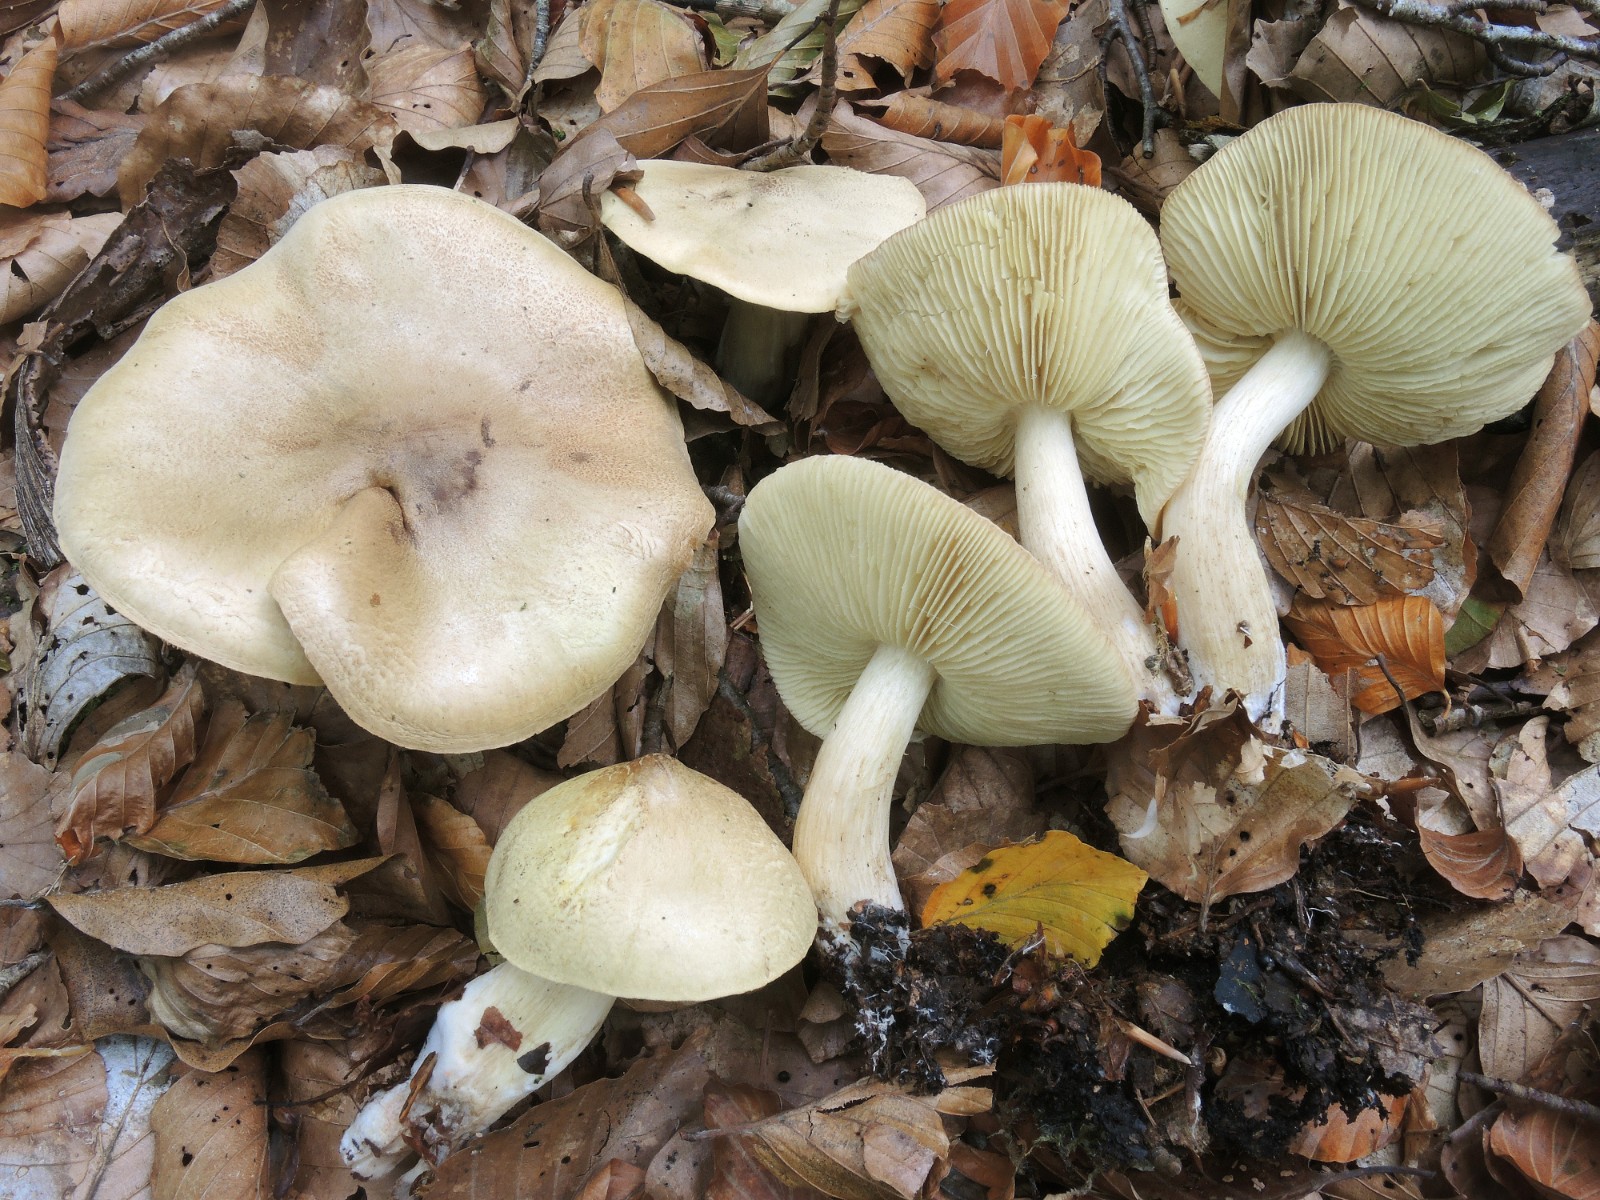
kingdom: Fungi
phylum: Basidiomycota
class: Agaricomycetes
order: Agaricales
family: Tricholomataceae
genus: Tricholoma
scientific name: Tricholoma aestuans
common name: kegle-ridderhat
